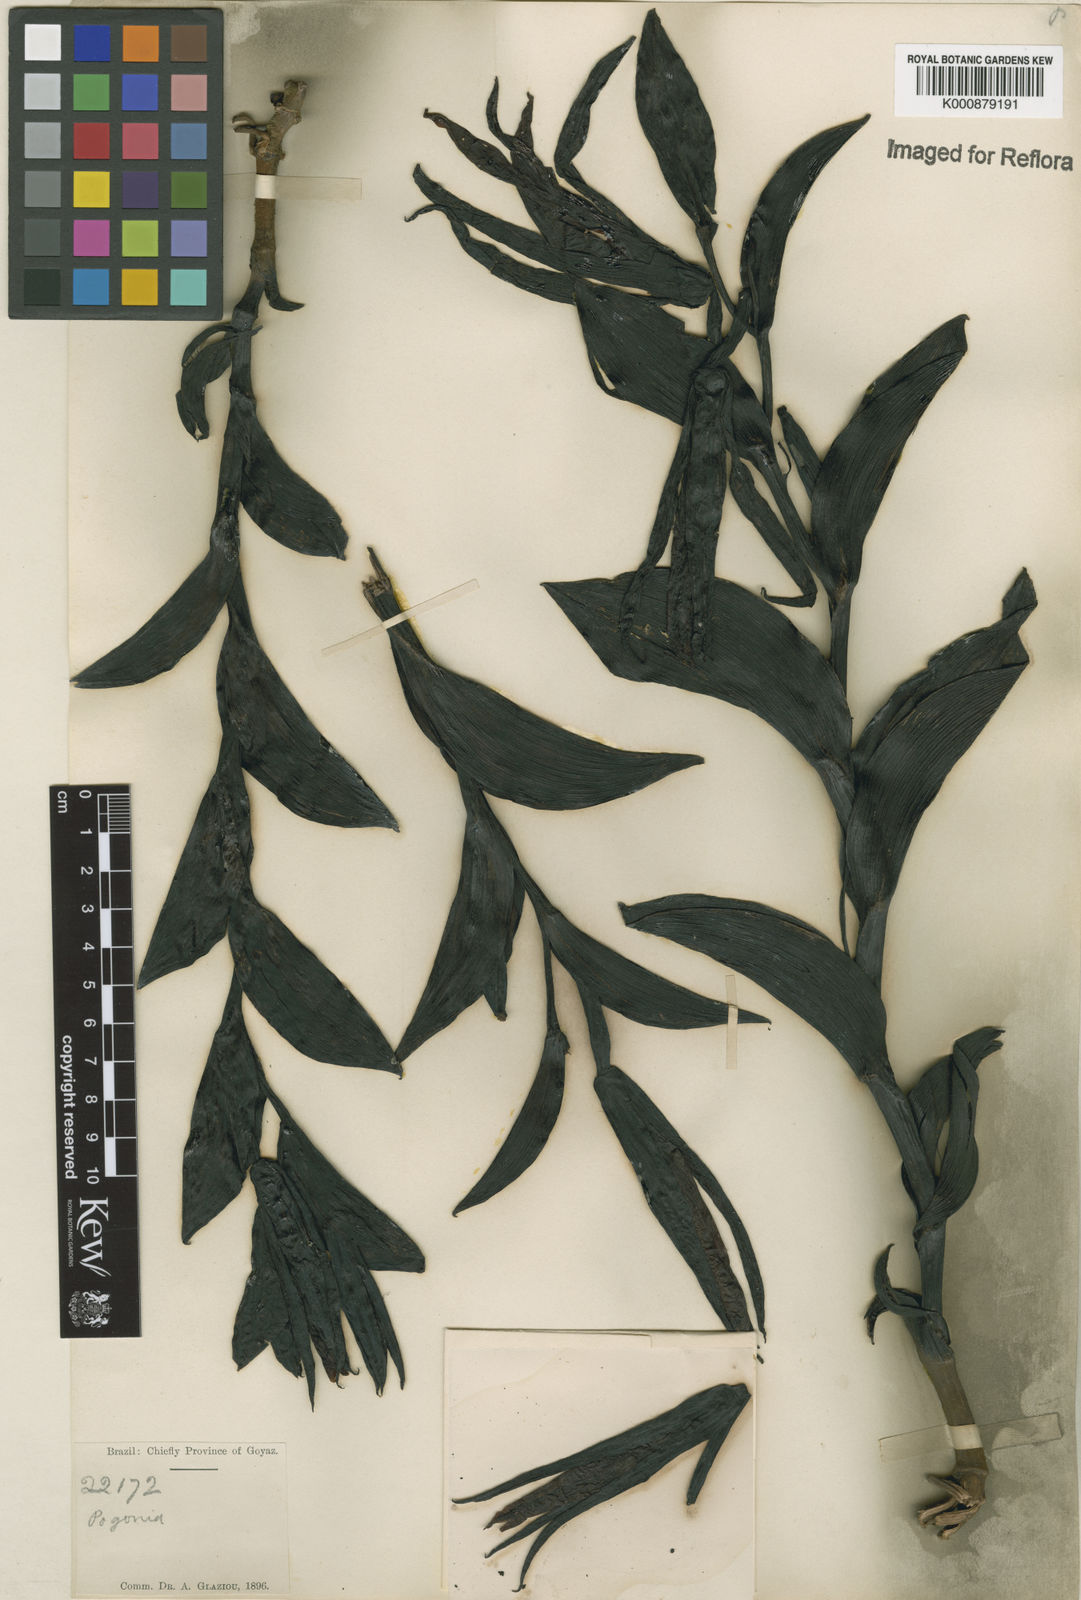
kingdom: Plantae
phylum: Tracheophyta
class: Liliopsida
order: Asparagales
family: Orchidaceae
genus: Cleistes
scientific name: Cleistes
